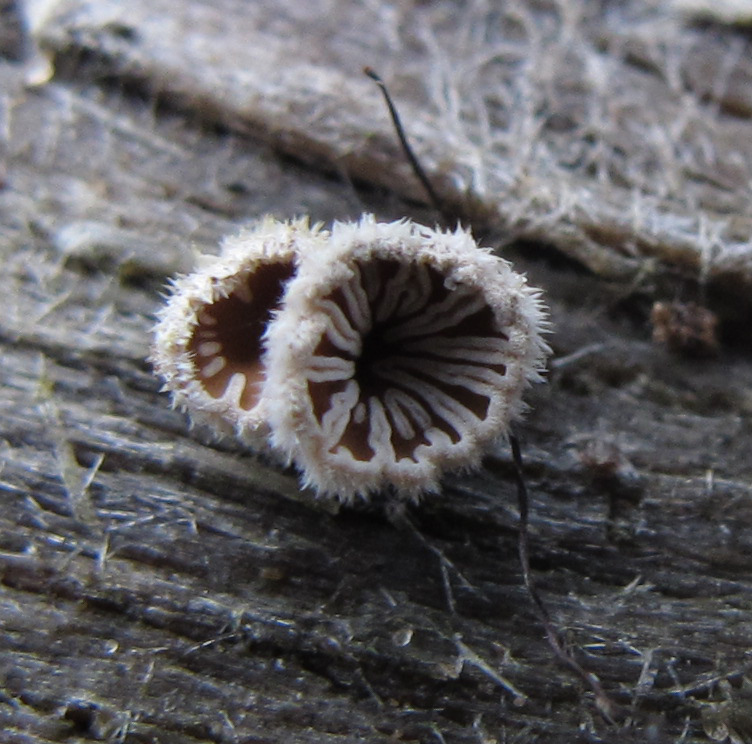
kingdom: Fungi
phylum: Basidiomycota
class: Agaricomycetes
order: Agaricales
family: Schizophyllaceae
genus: Schizophyllum
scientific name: Schizophyllum commune
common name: kløvblad
